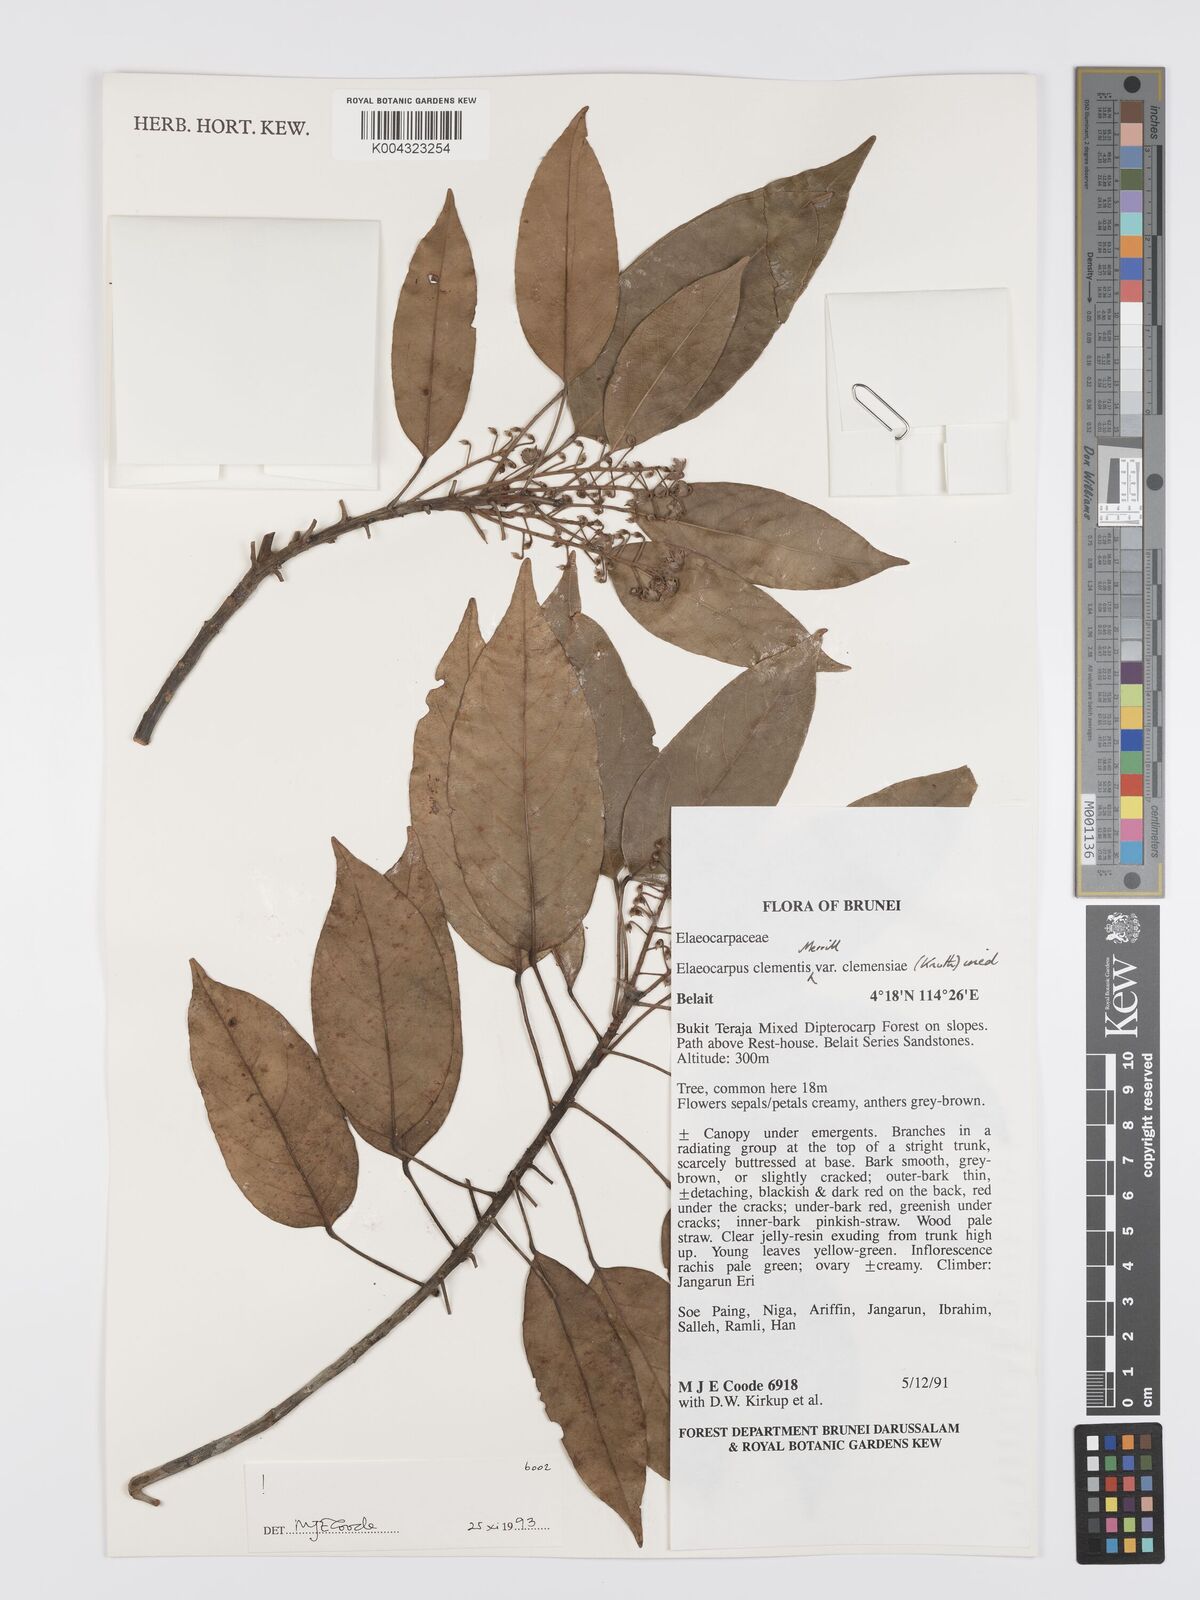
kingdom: Plantae
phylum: Tracheophyta
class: Magnoliopsida
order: Oxalidales
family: Elaeocarpaceae
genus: Elaeocarpus
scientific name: Elaeocarpus clementis
